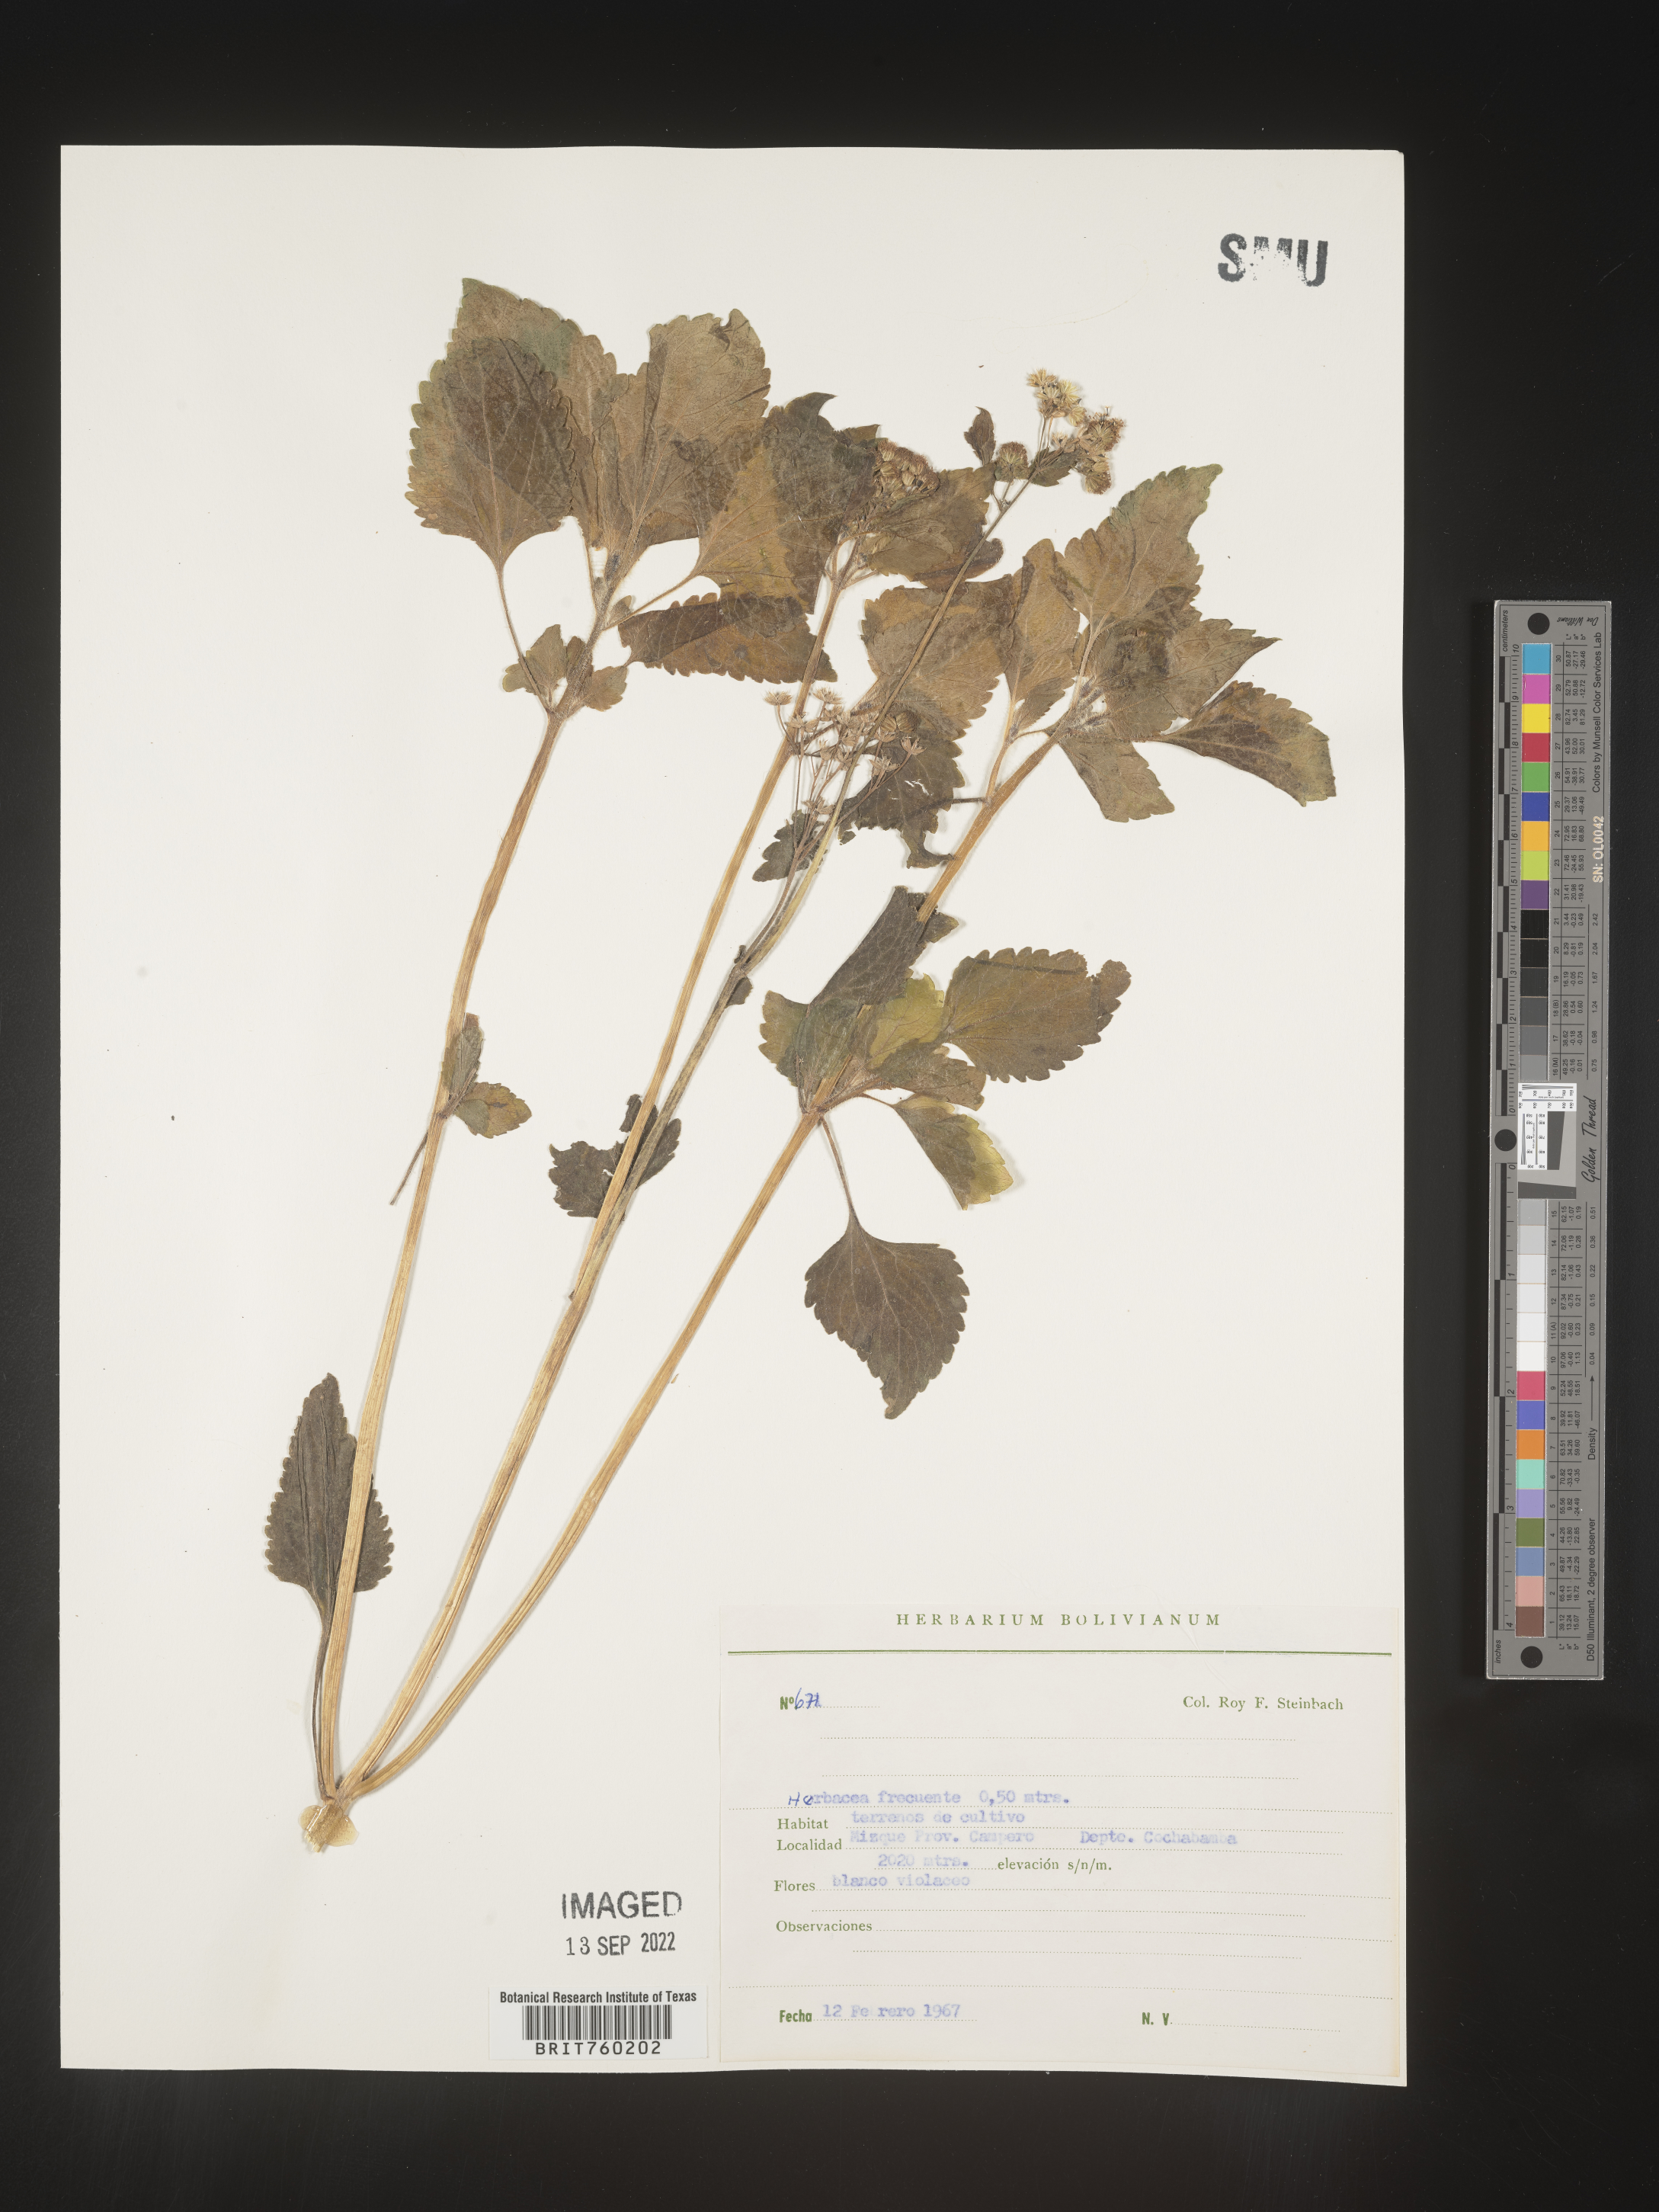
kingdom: Plantae
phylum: Tracheophyta
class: Magnoliopsida
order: Asterales
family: Asteraceae
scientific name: Asteraceae
